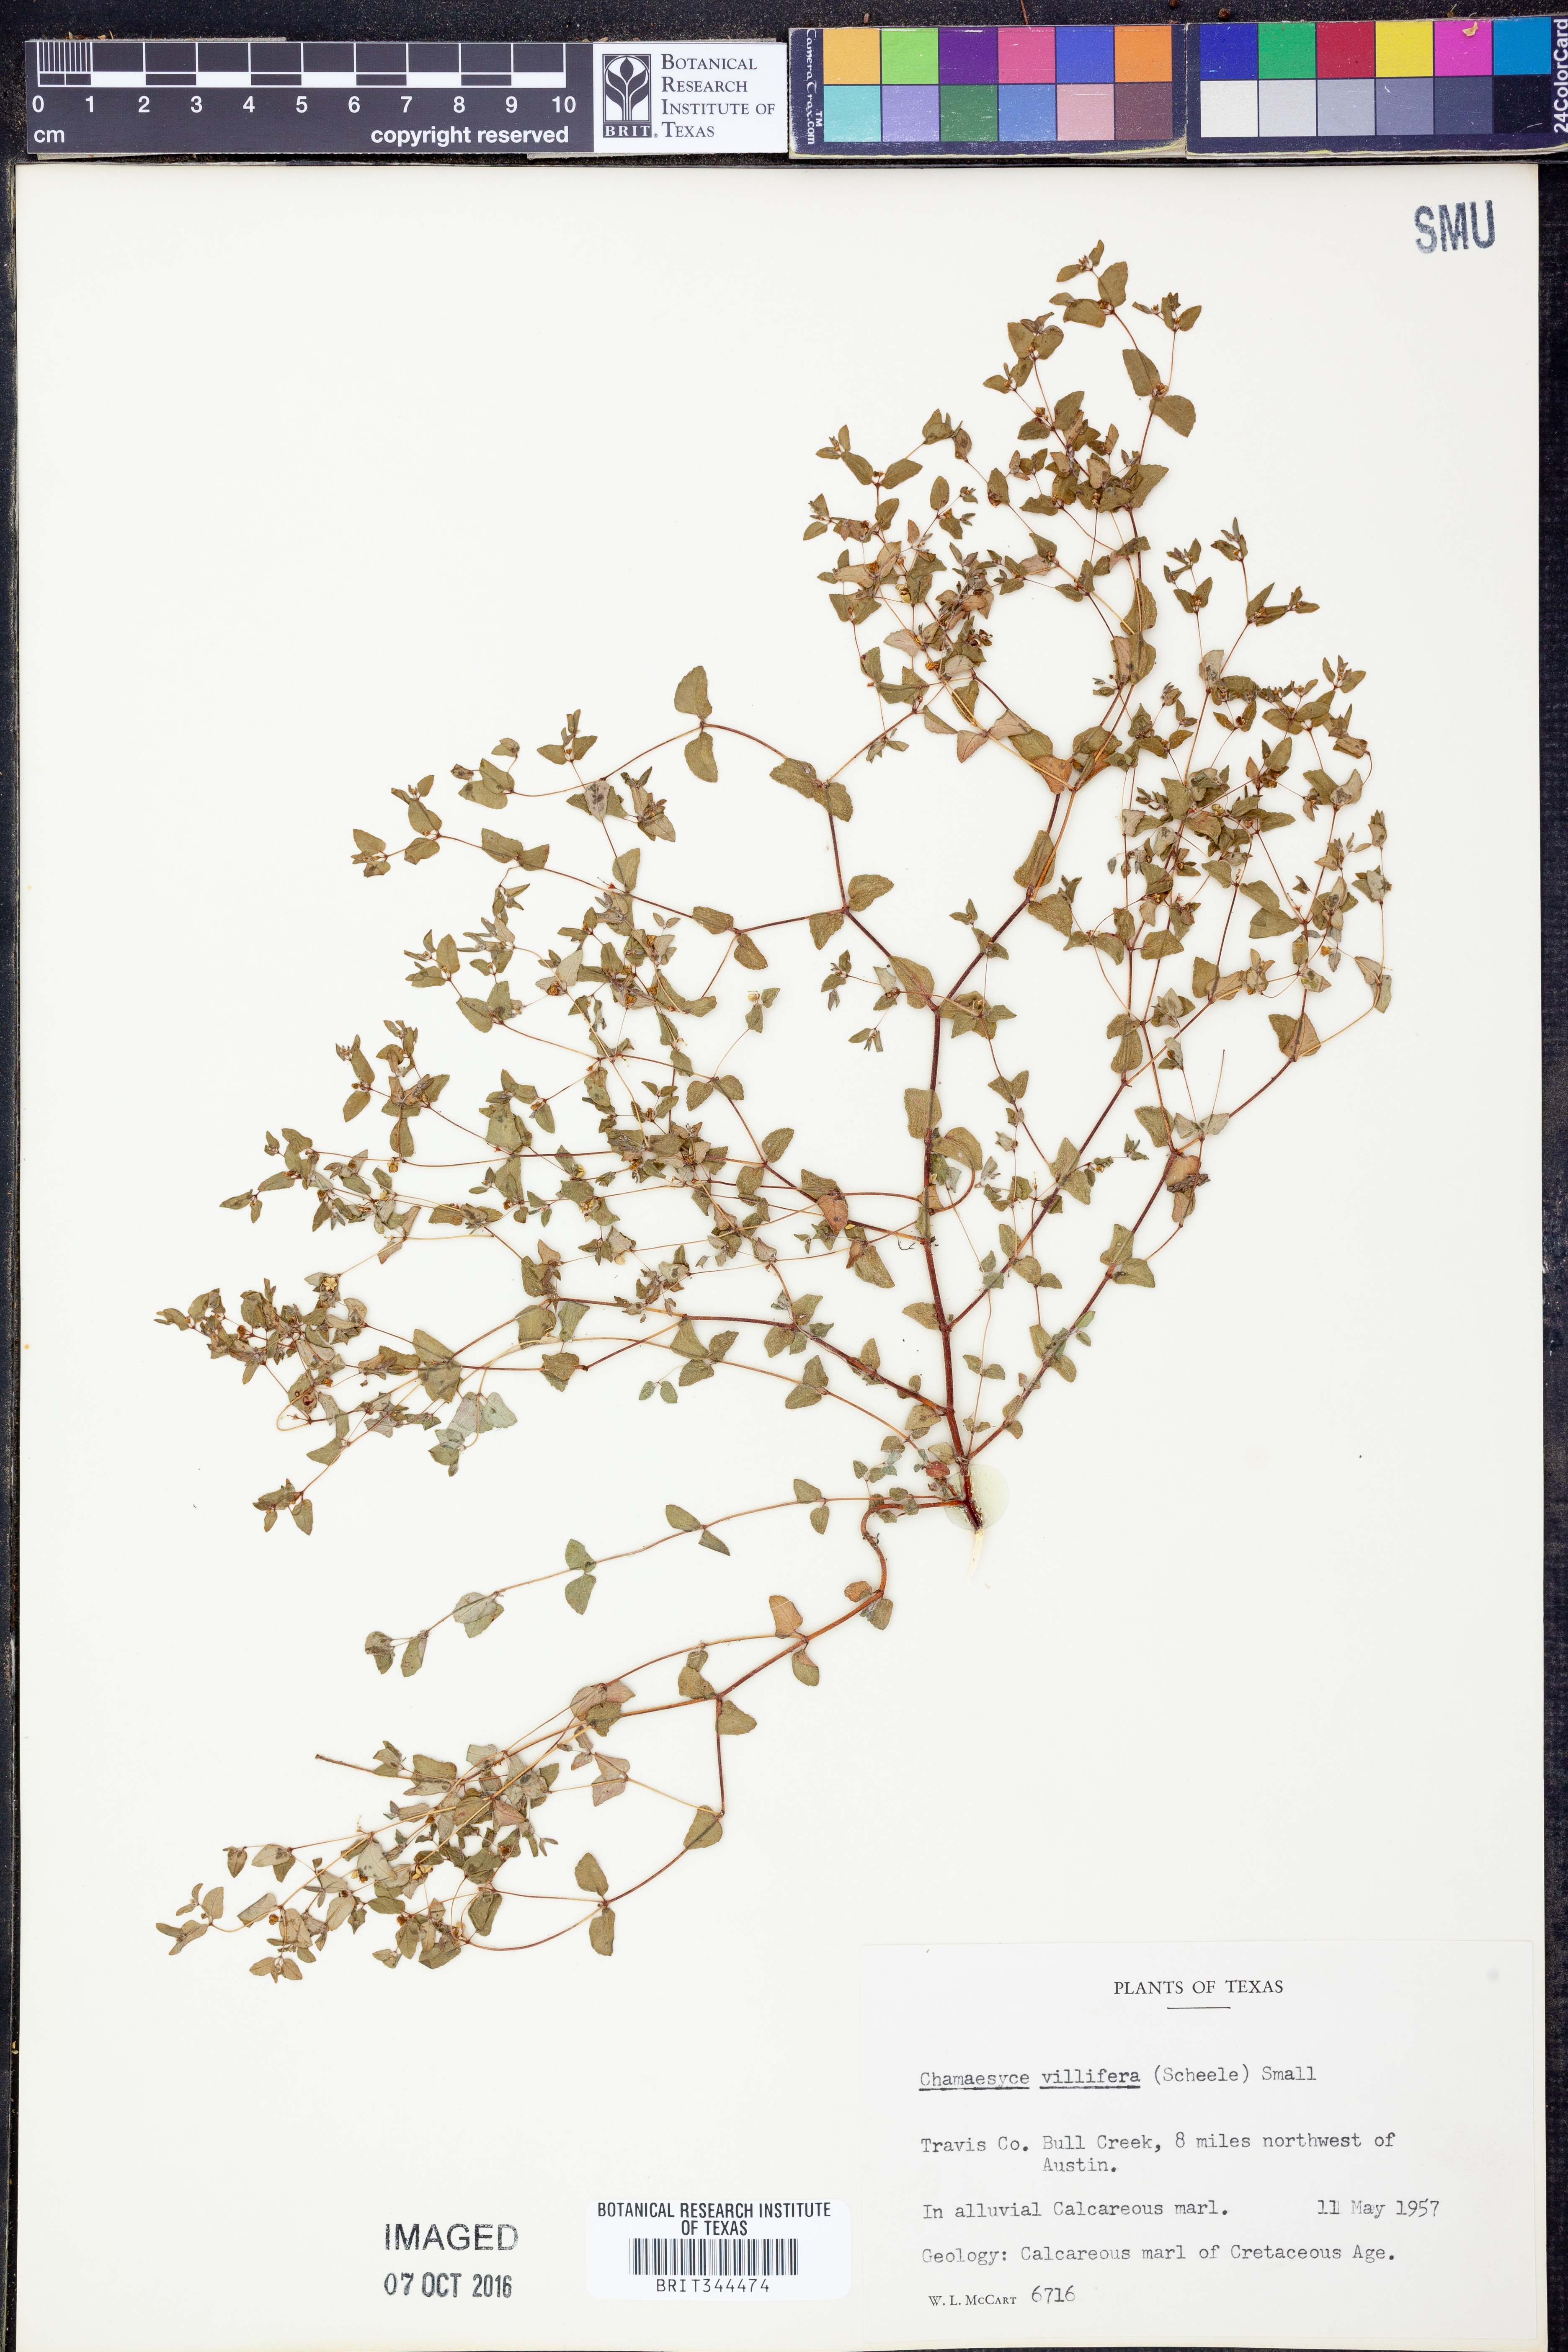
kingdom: Plantae
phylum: Tracheophyta
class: Magnoliopsida
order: Malpighiales
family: Euphorbiaceae
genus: Euphorbia
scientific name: Euphorbia villifera
